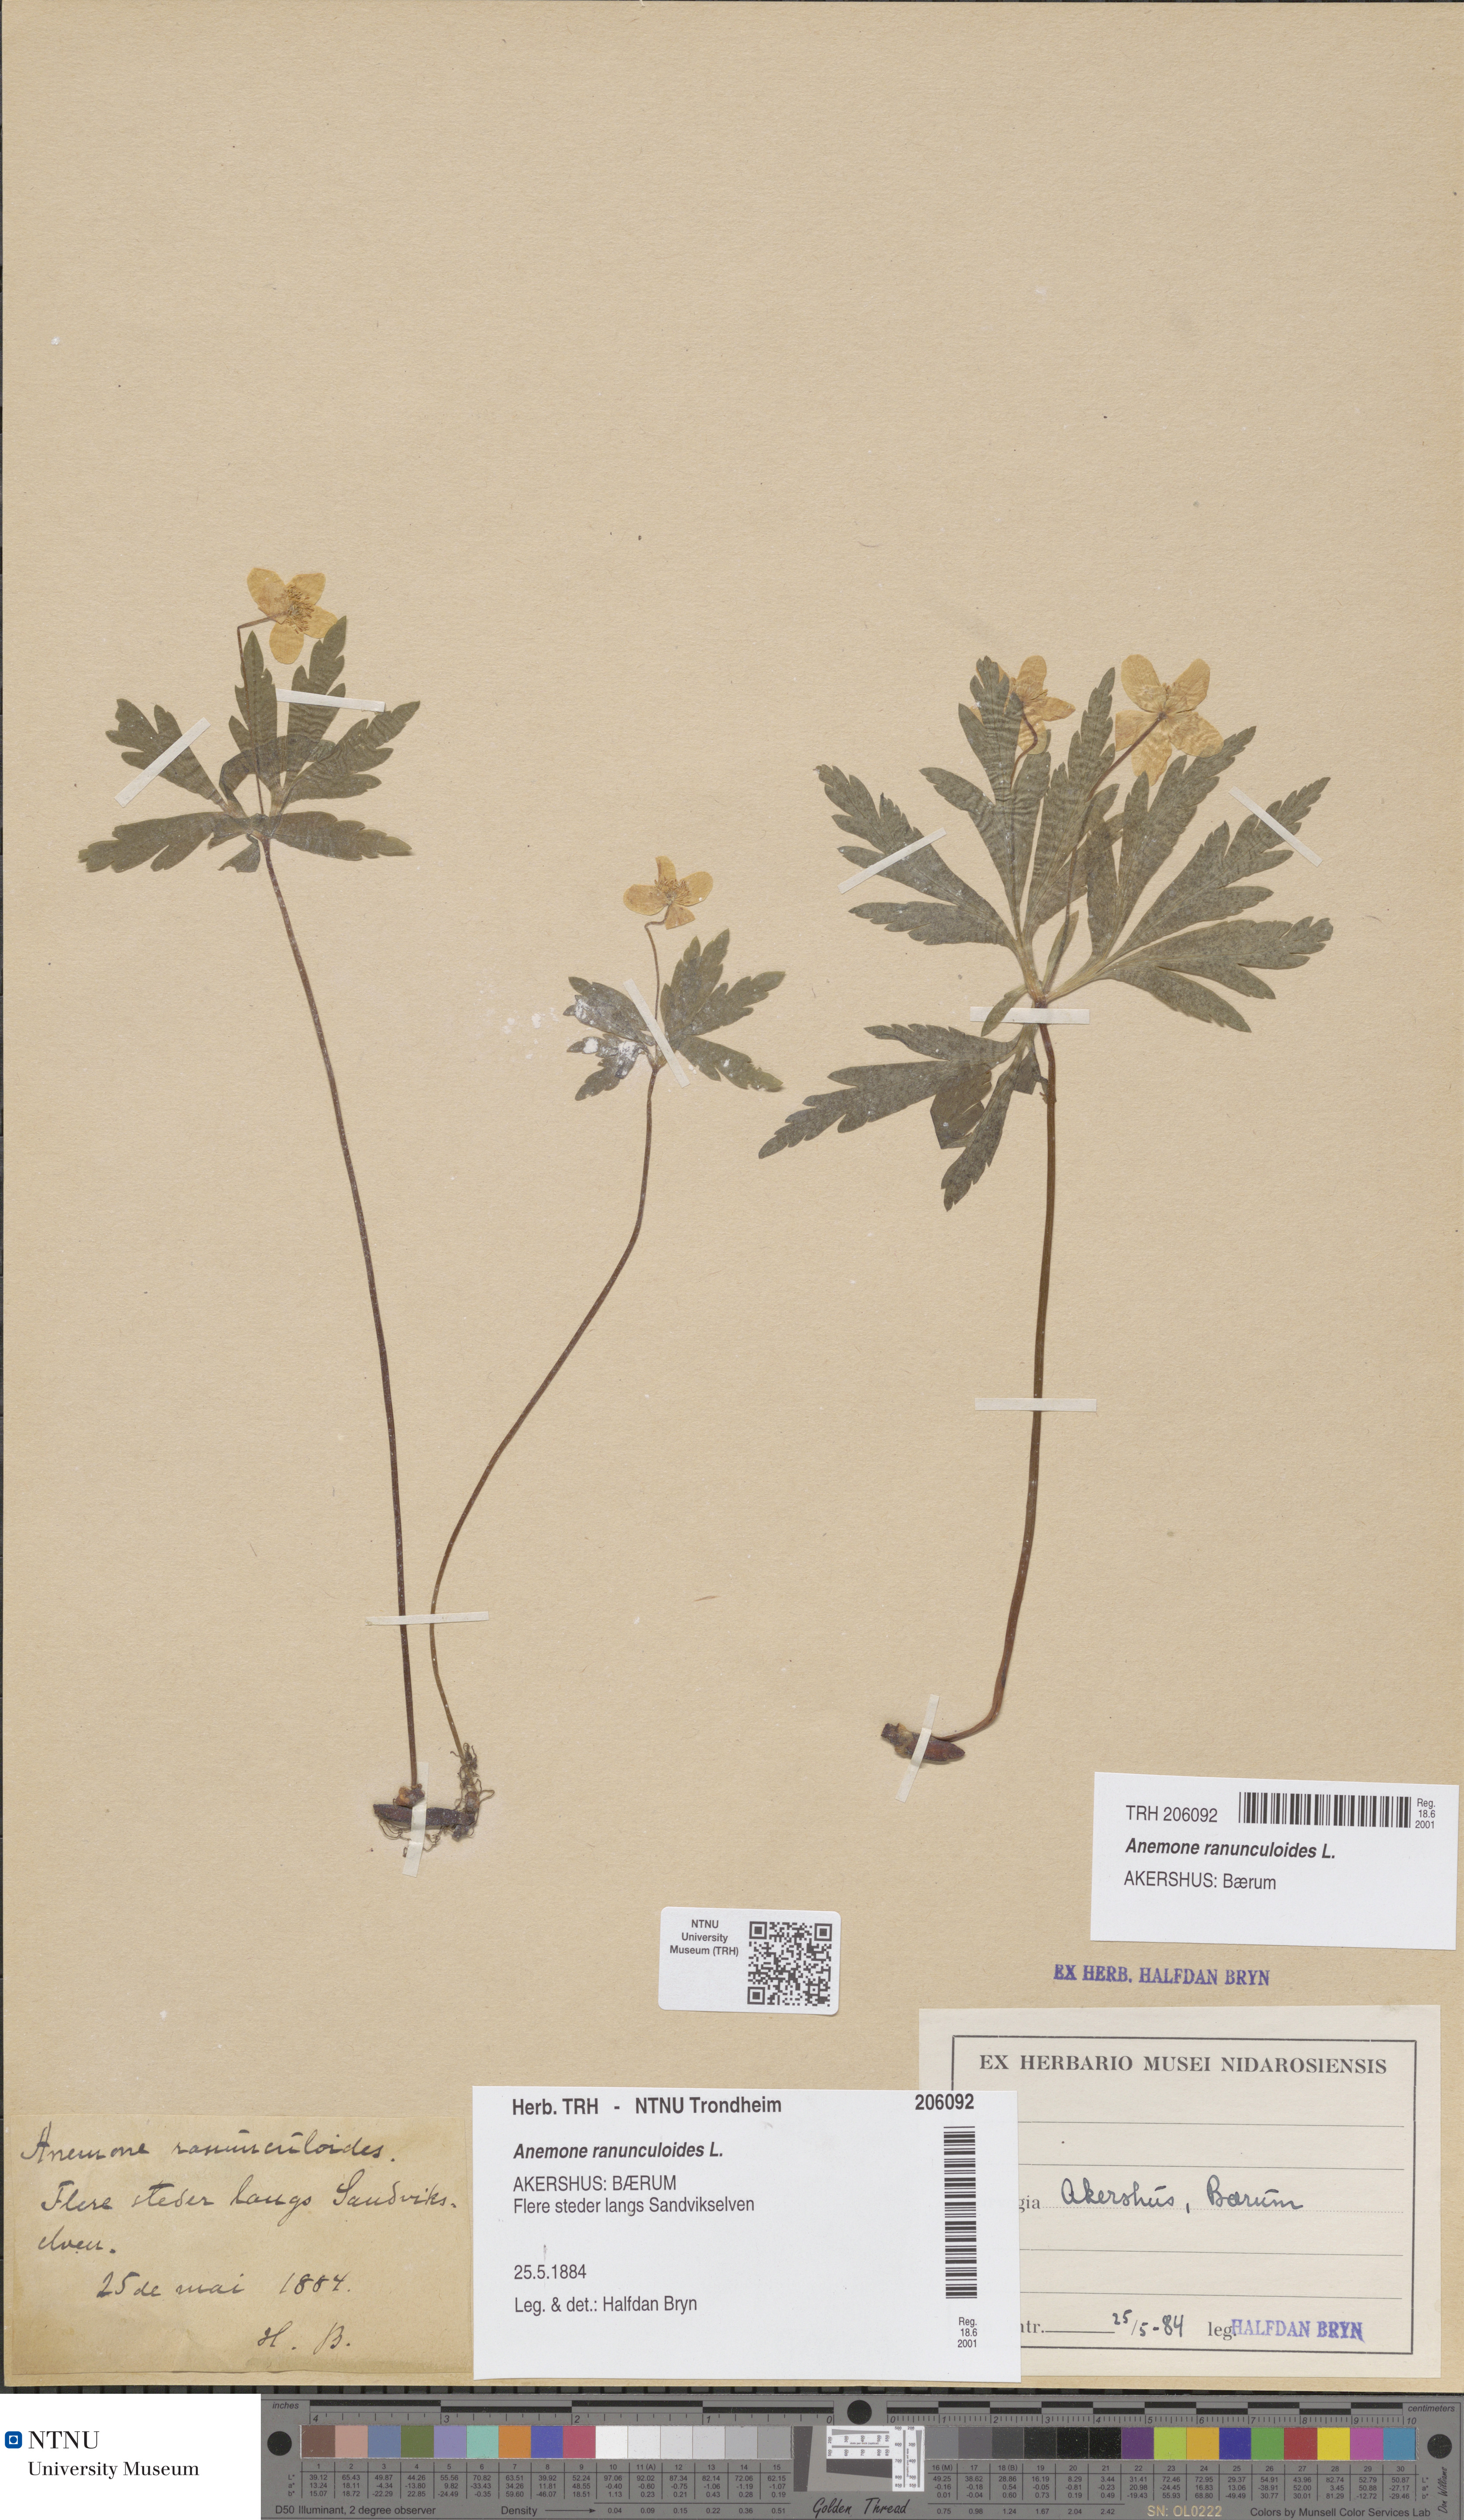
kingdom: Plantae
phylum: Tracheophyta
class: Magnoliopsida
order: Ranunculales
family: Ranunculaceae
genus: Anemone
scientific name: Anemone ranunculoides
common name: Yellow anemone
